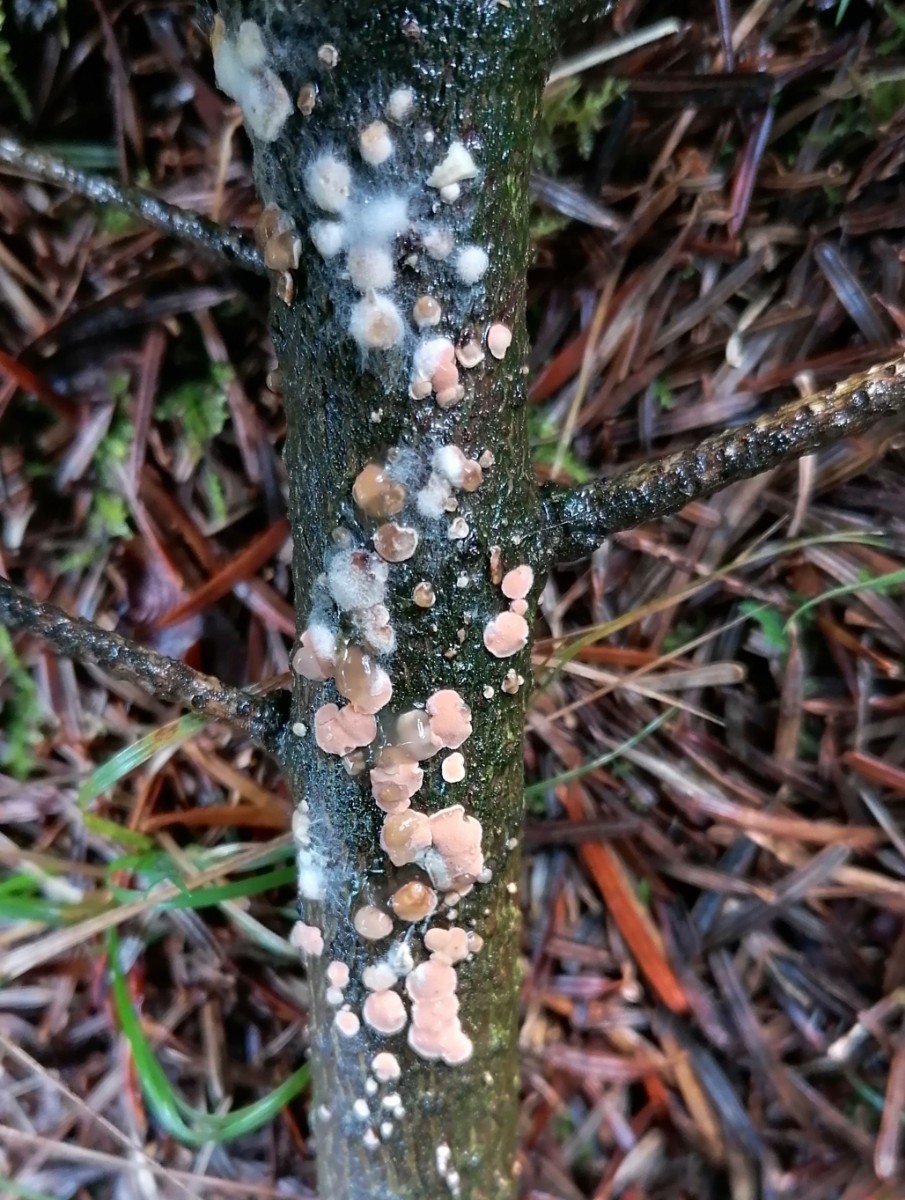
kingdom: Fungi
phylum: Basidiomycota
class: Agaricomycetes
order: Russulales
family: Stereaceae
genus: Aleurodiscus
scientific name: Aleurodiscus amorphus
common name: orange skiveskorpe
